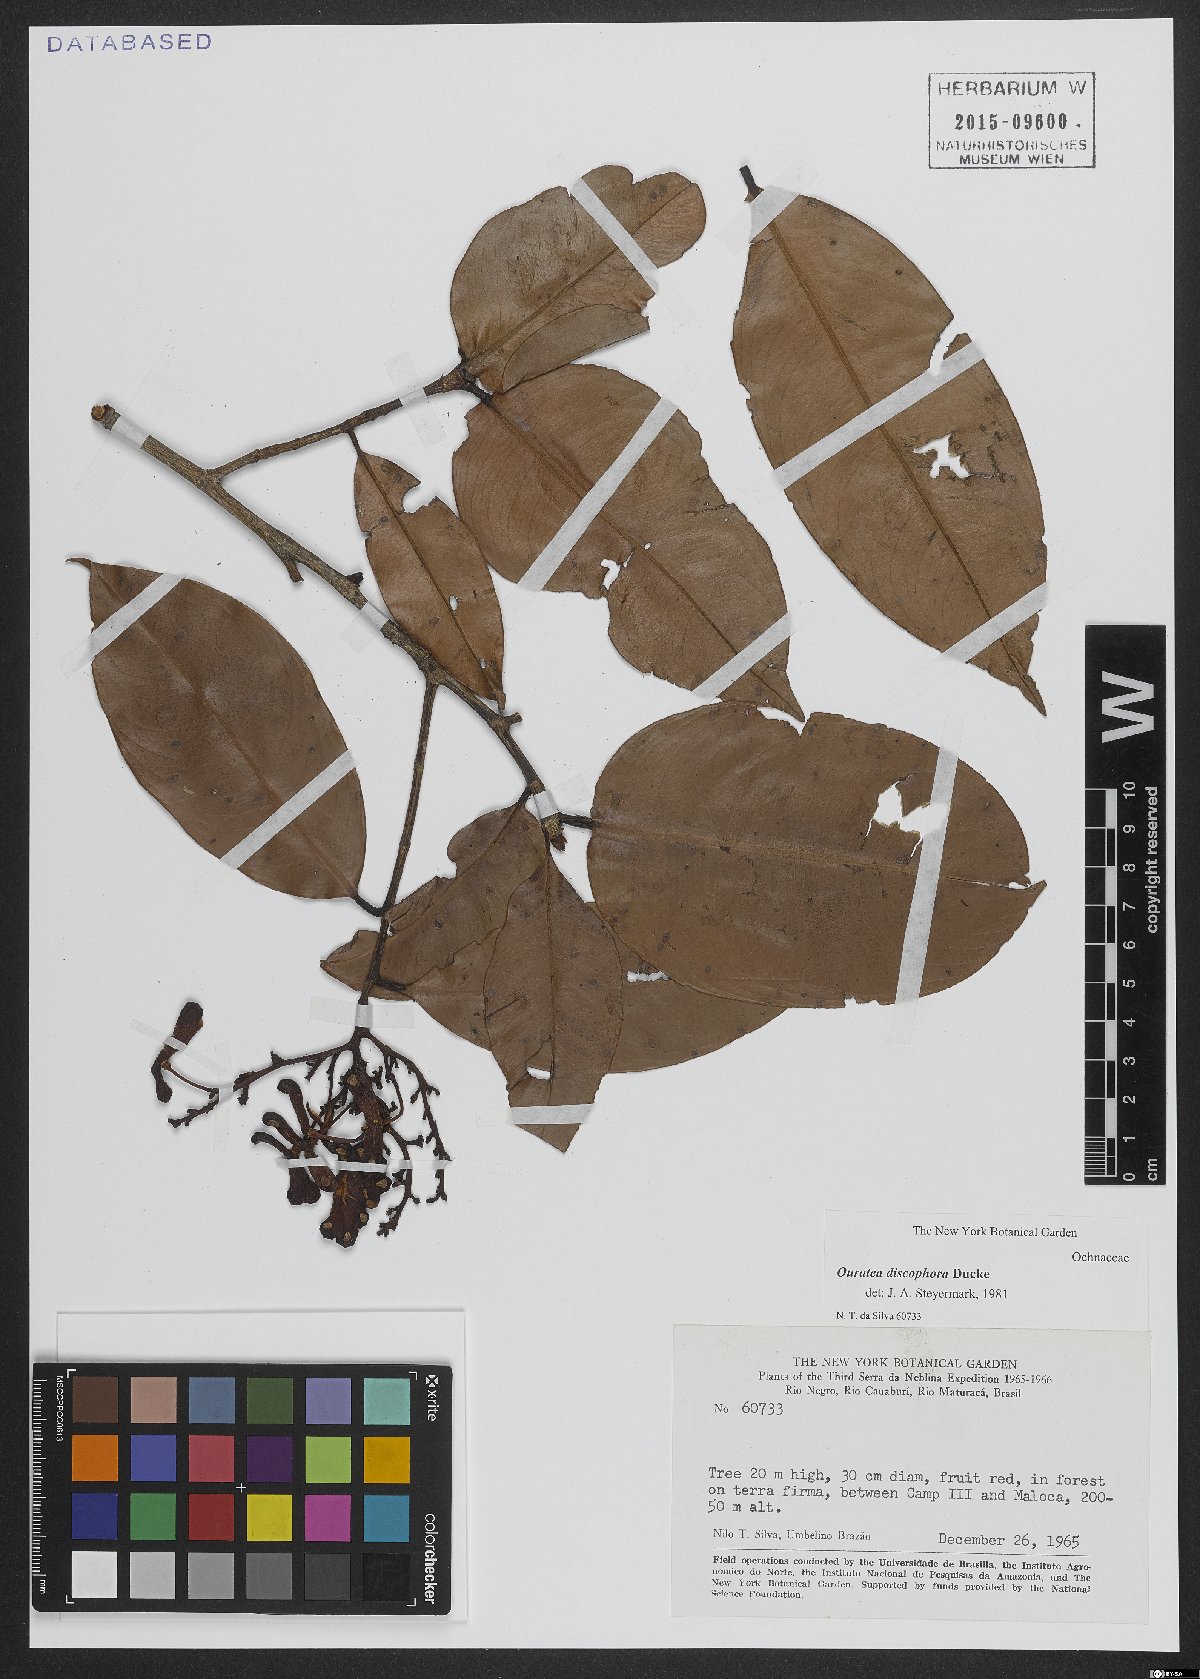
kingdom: Plantae
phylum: Tracheophyta
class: Magnoliopsida
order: Malpighiales
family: Ochnaceae
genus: Ouratea
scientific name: Ouratea discophora
